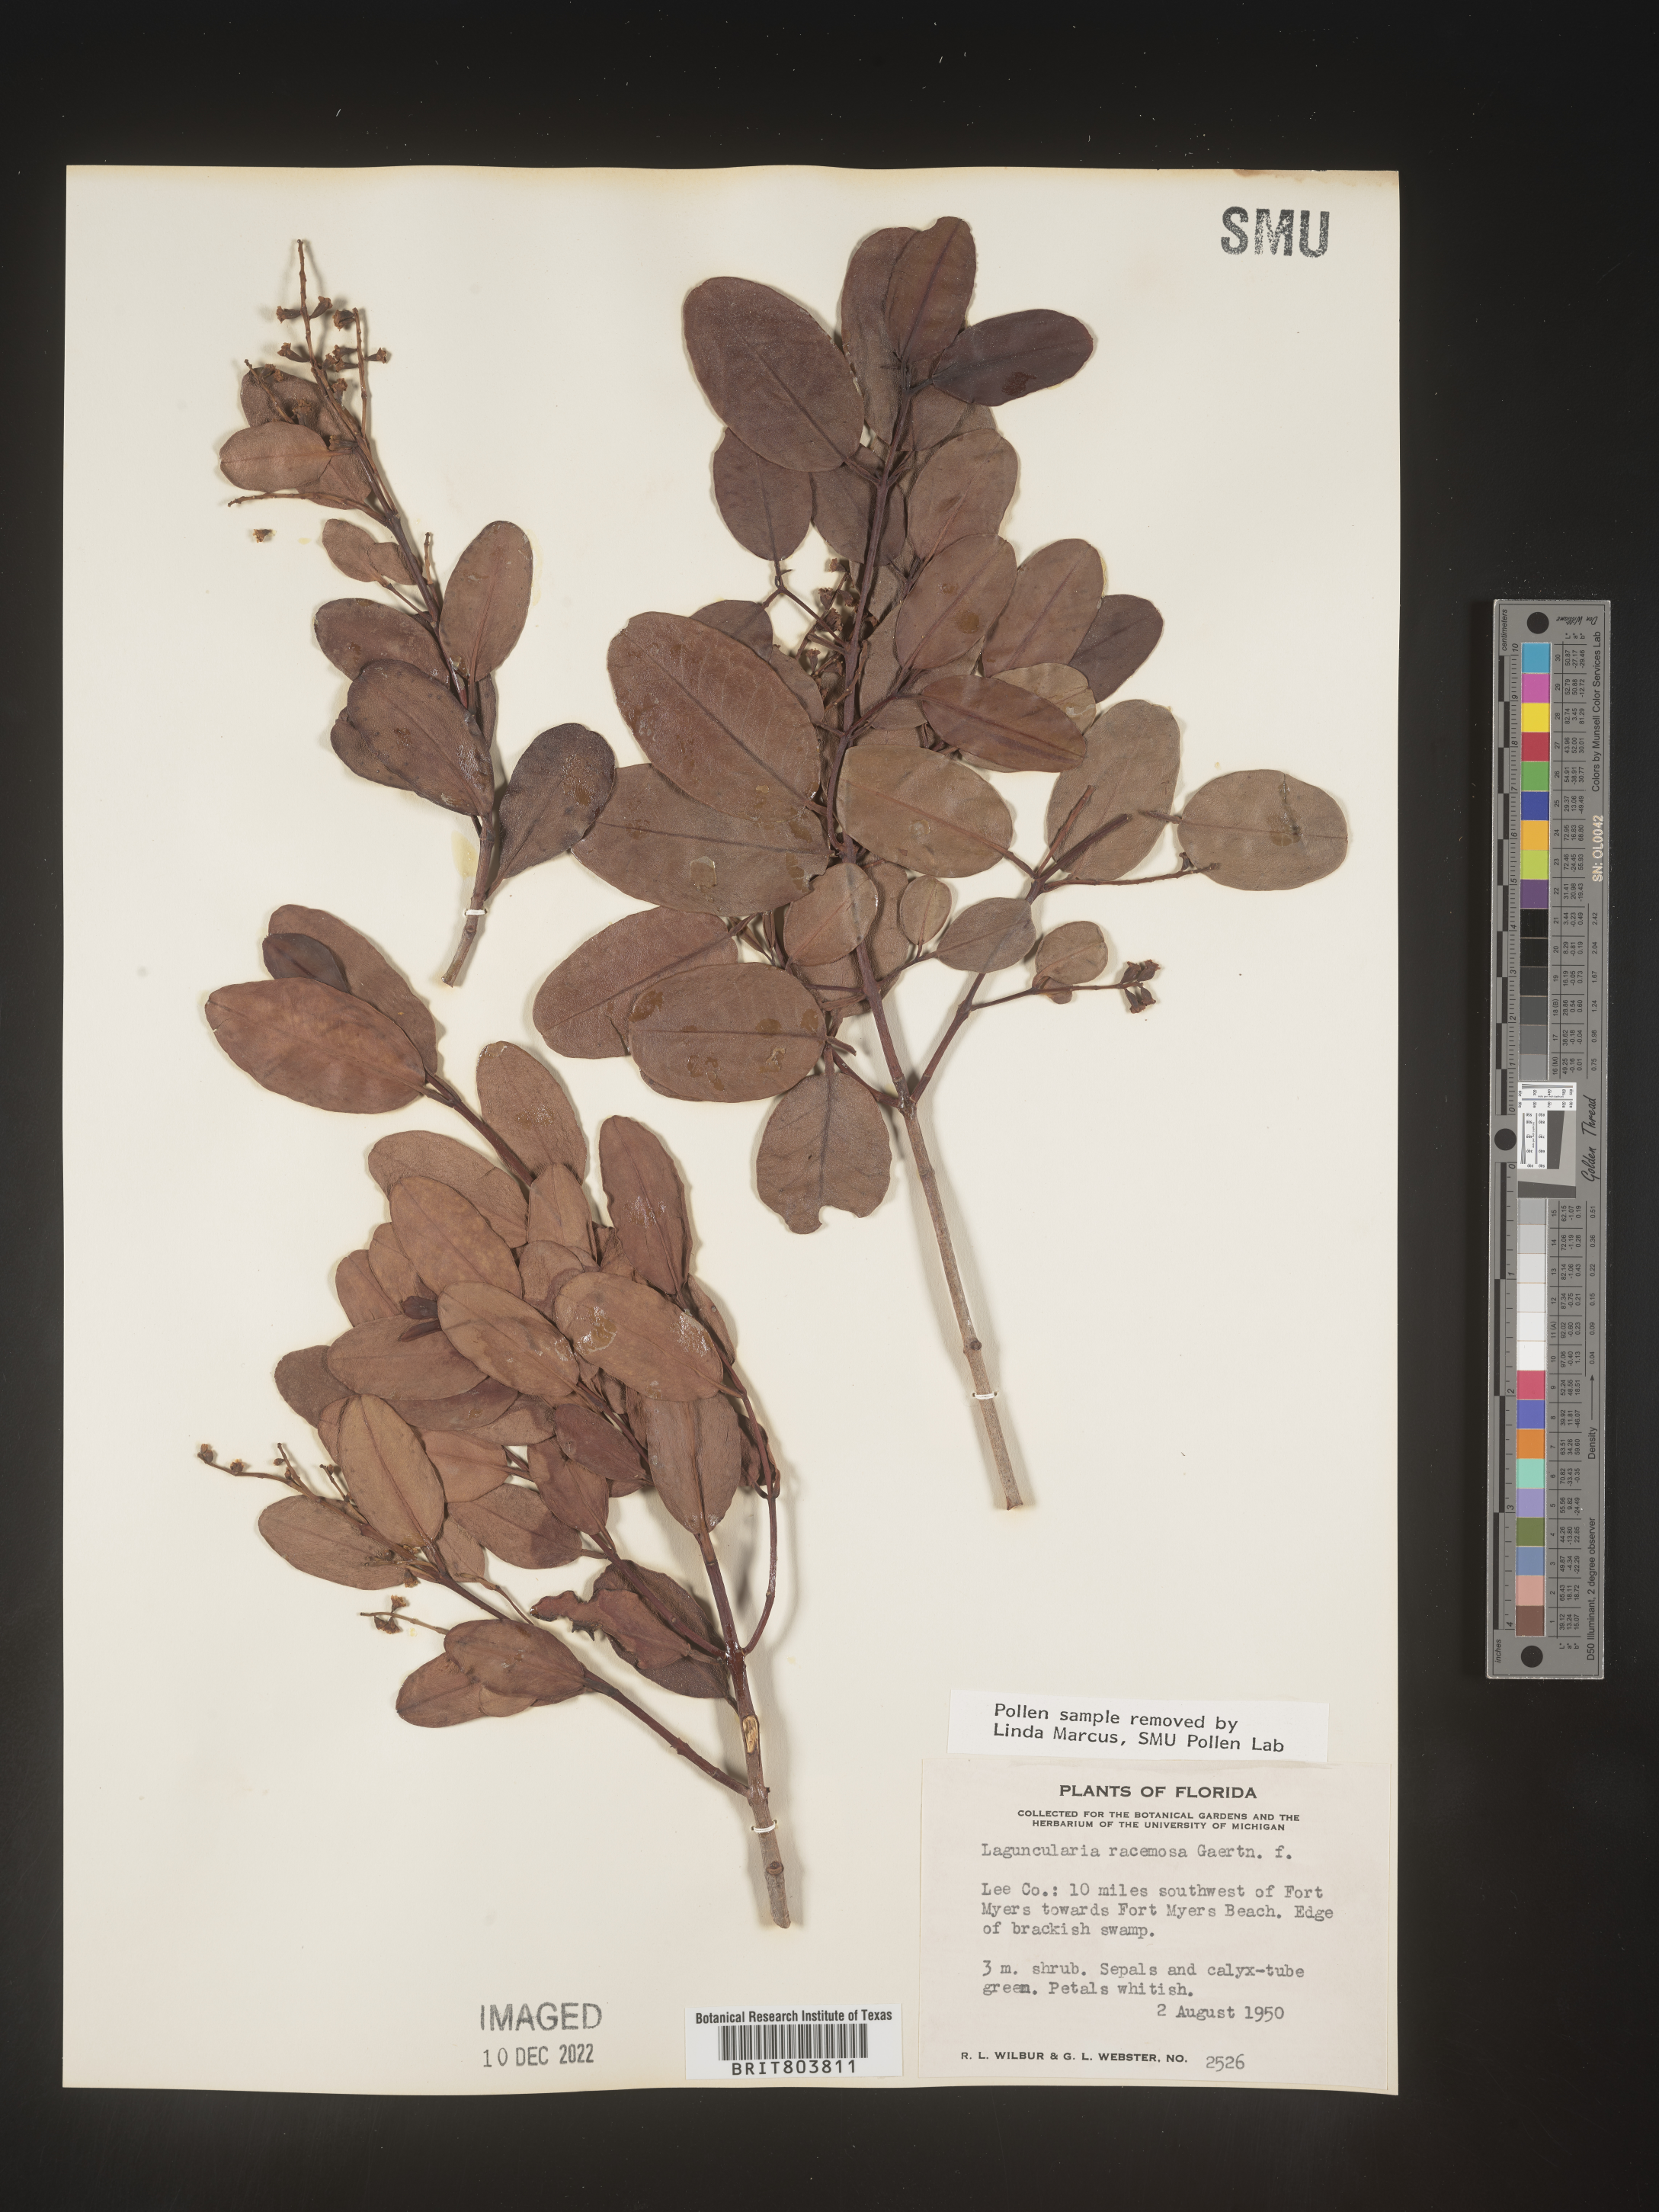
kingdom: Plantae
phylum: Tracheophyta
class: Magnoliopsida
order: Myrtales
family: Combretaceae
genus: Laguncularia
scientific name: Laguncularia
